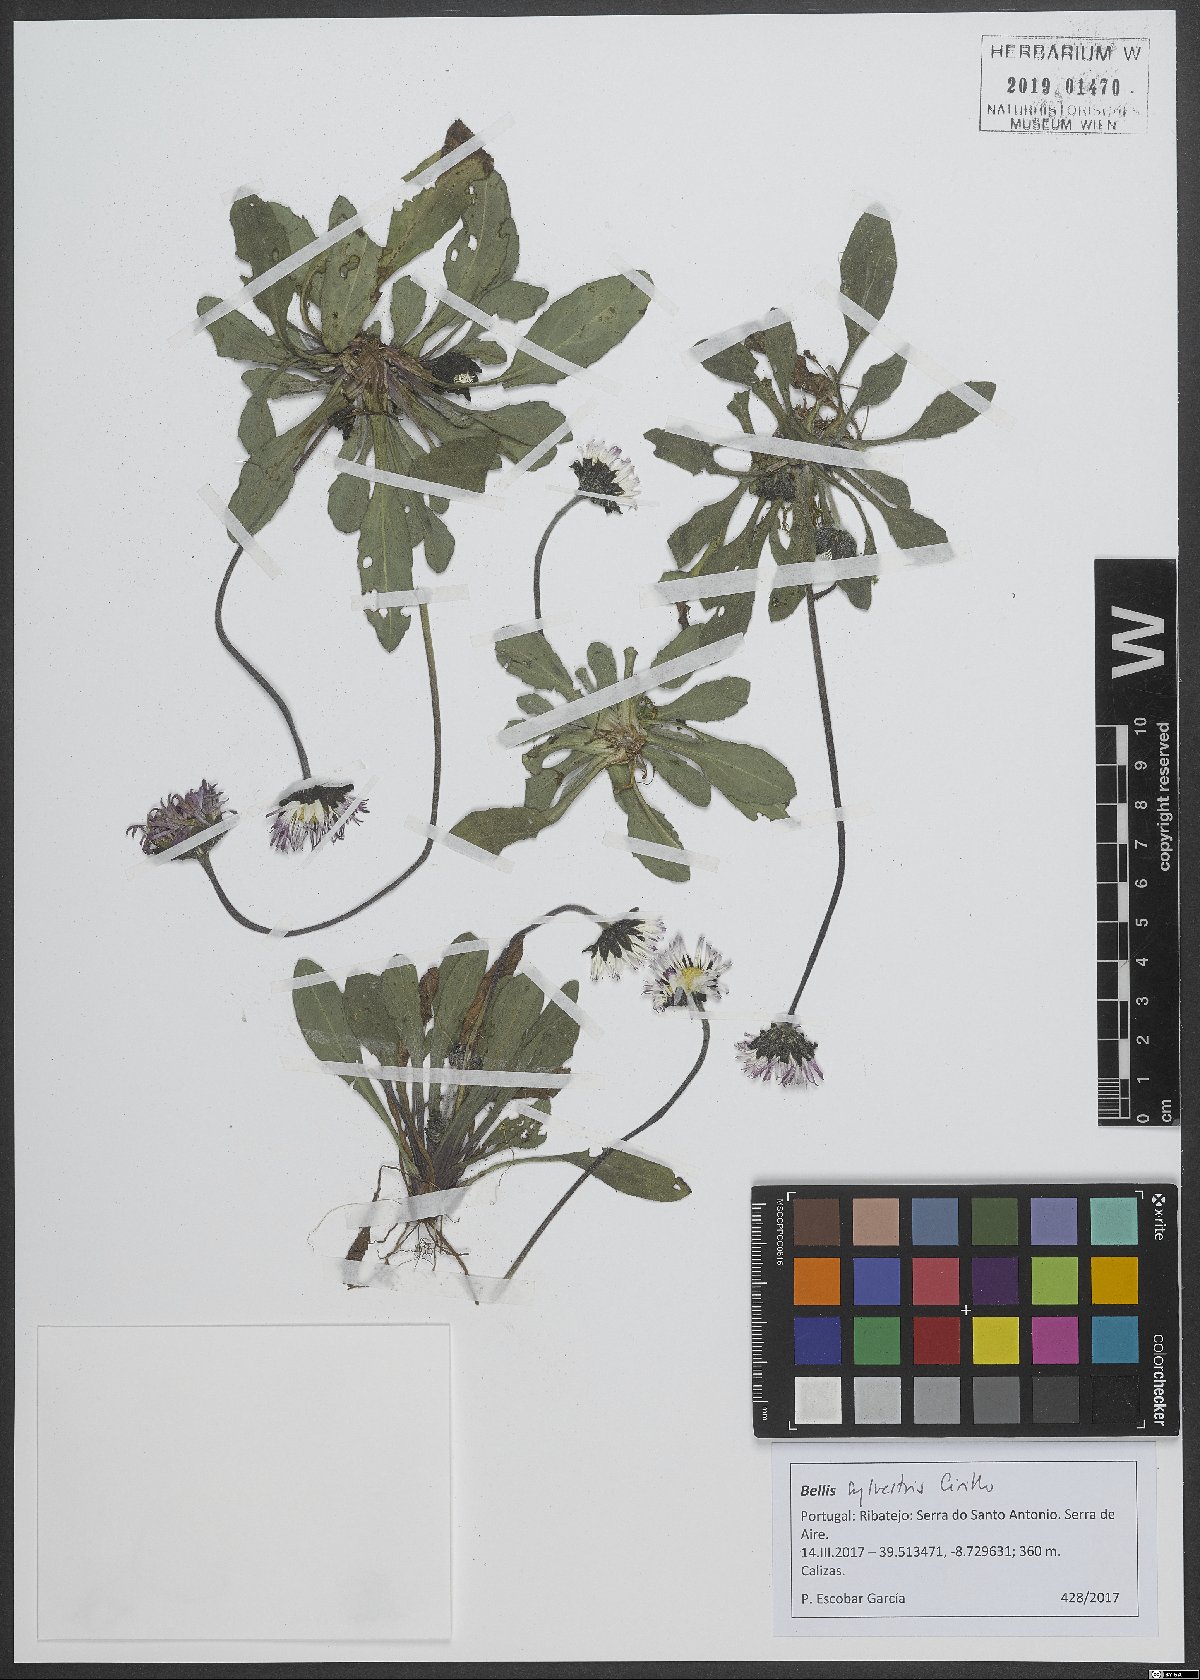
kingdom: Plantae
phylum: Tracheophyta
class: Magnoliopsida
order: Asterales
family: Asteraceae
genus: Bellis
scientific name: Bellis sylvestris
